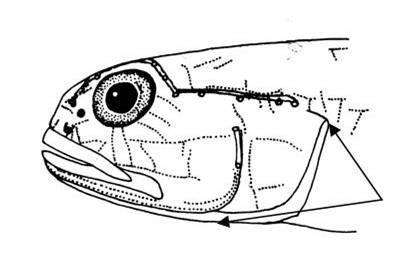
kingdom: Animalia
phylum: Chordata
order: Perciformes
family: Gobiidae
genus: Myersina
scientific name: Myersina filifer
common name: Thread goby
